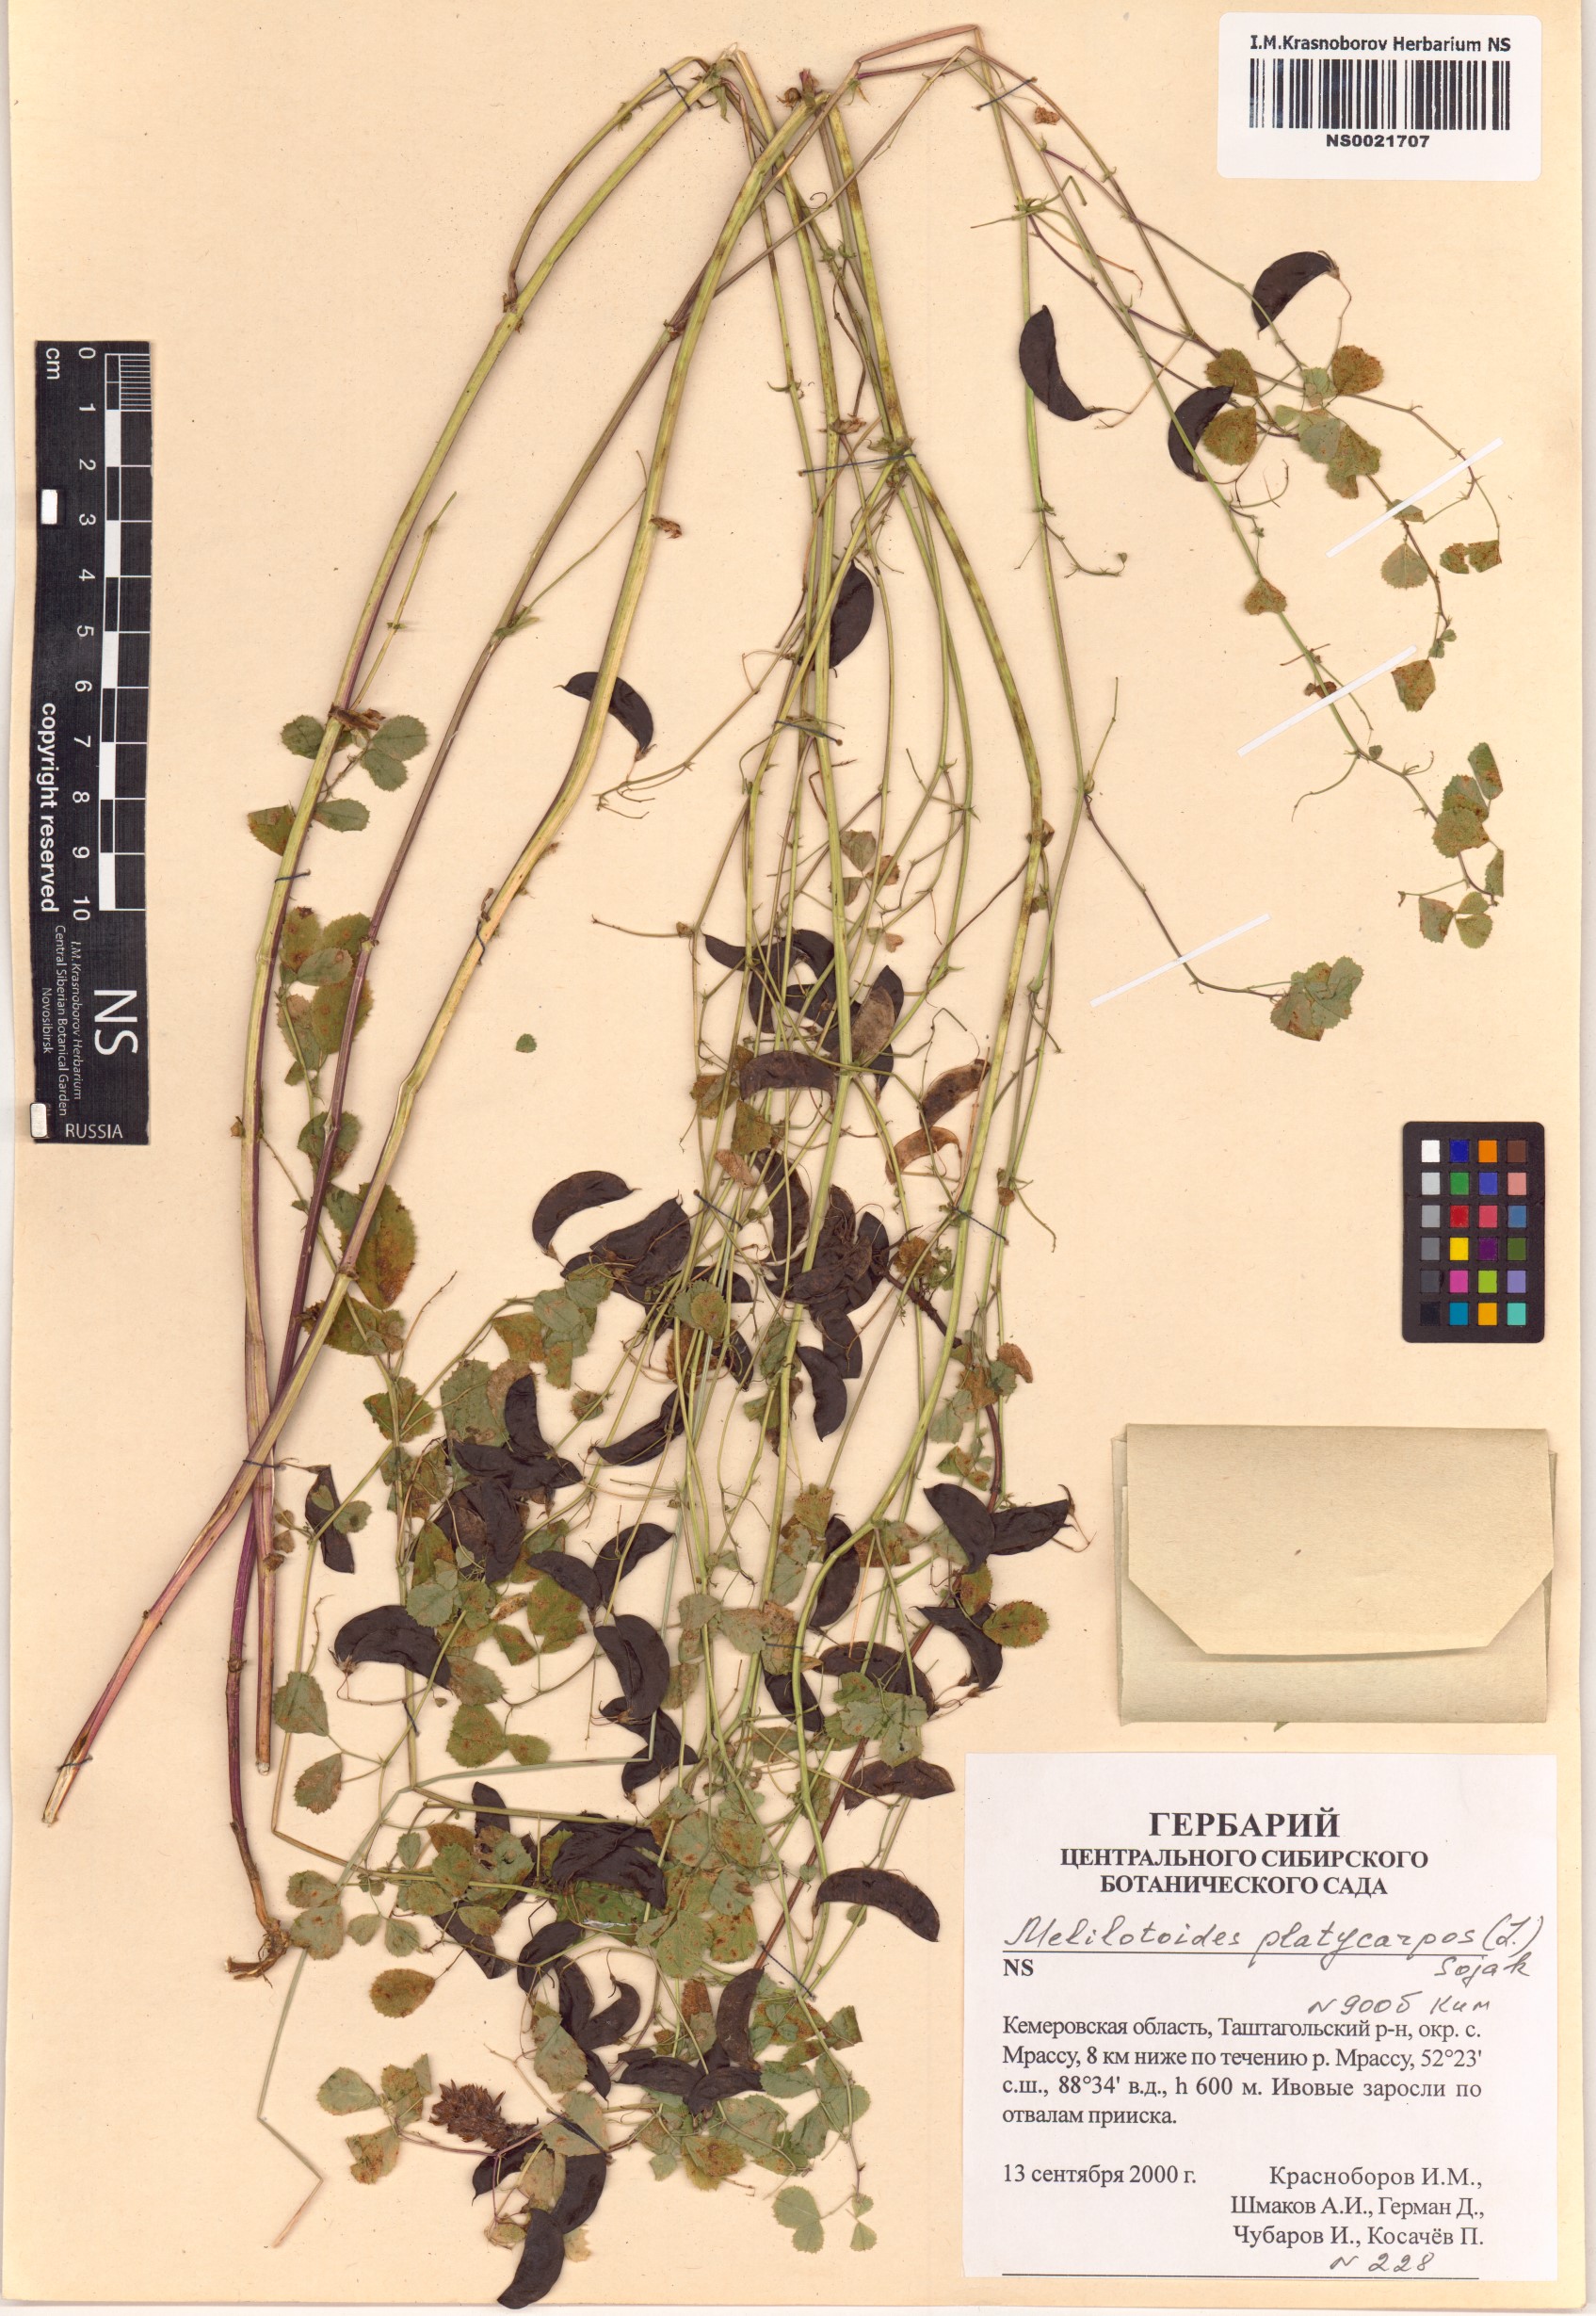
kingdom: Plantae
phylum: Tracheophyta
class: Magnoliopsida
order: Fabales
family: Fabaceae
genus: Medicago
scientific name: Medicago platycarpos
